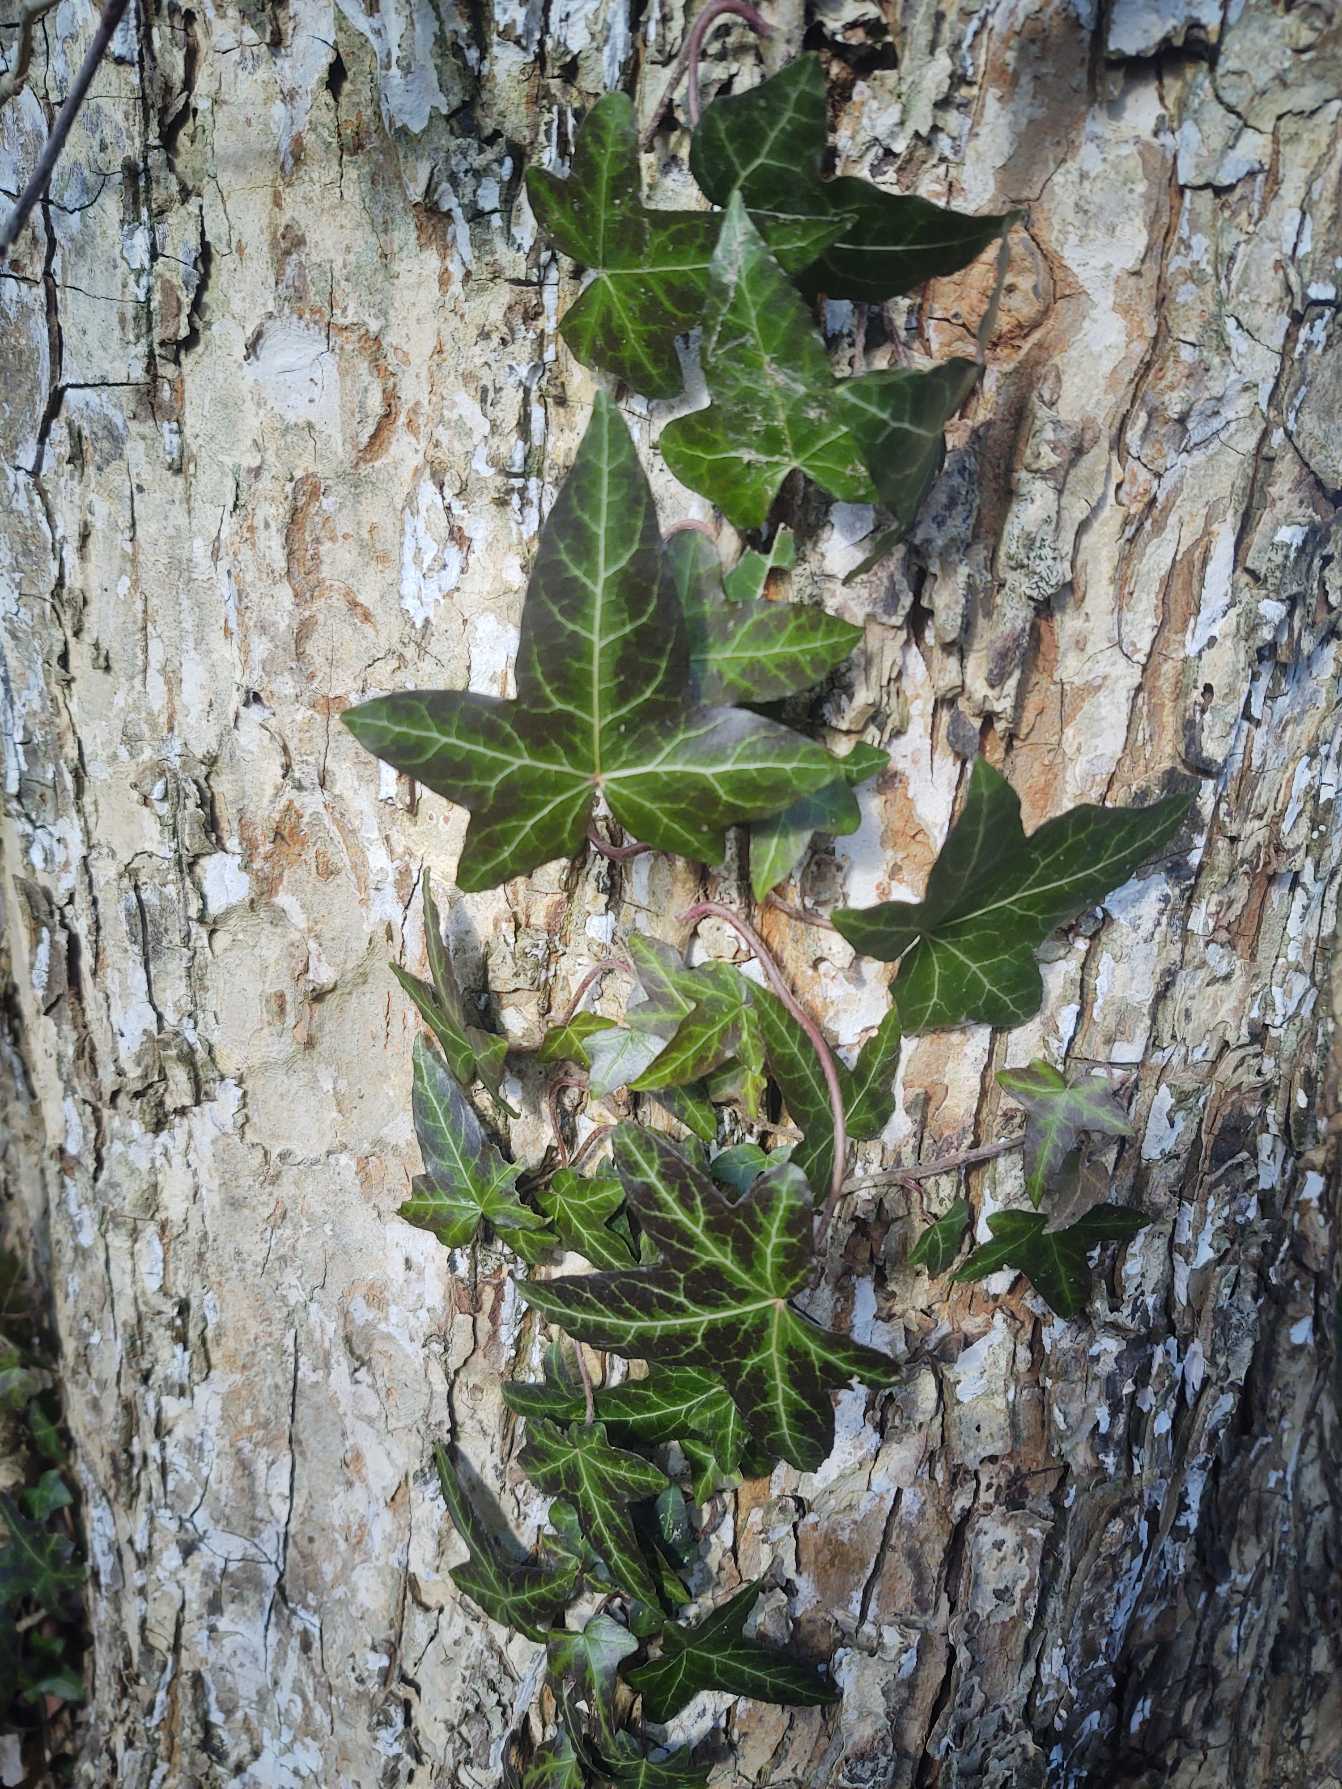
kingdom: Plantae
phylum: Tracheophyta
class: Magnoliopsida
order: Apiales
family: Araliaceae
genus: Hedera
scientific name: Hedera helix
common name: Vedbend
